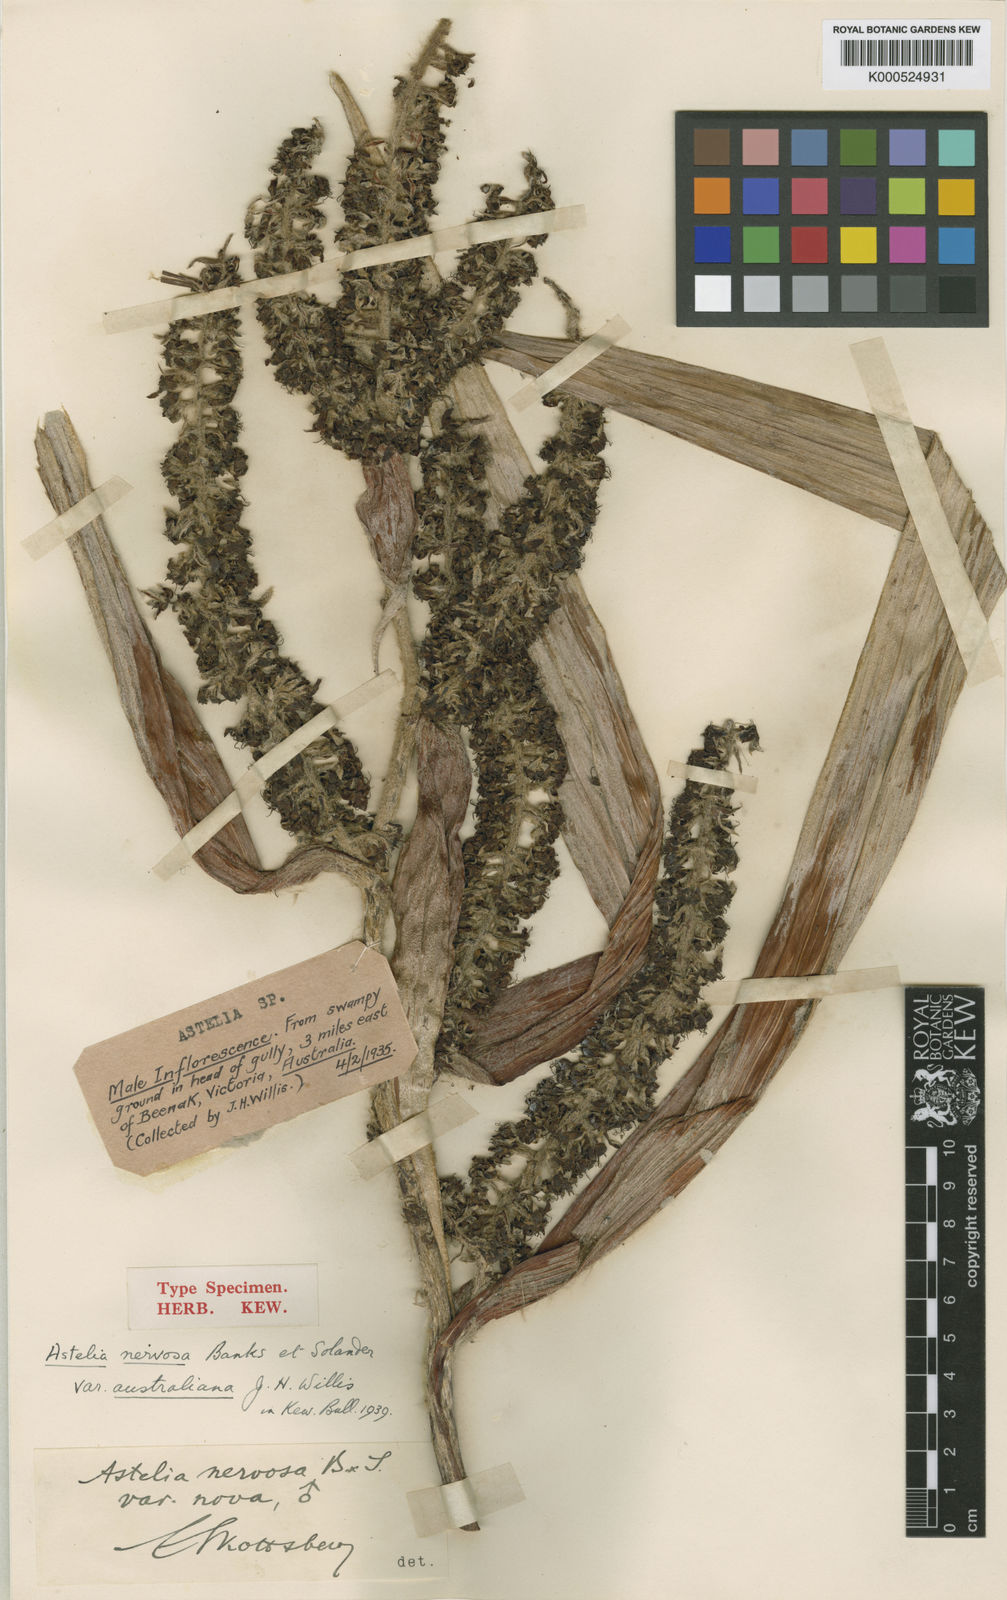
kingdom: Plantae
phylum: Tracheophyta
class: Liliopsida
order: Asparagales
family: Asteliaceae
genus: Astelia
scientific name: Astelia australiana
